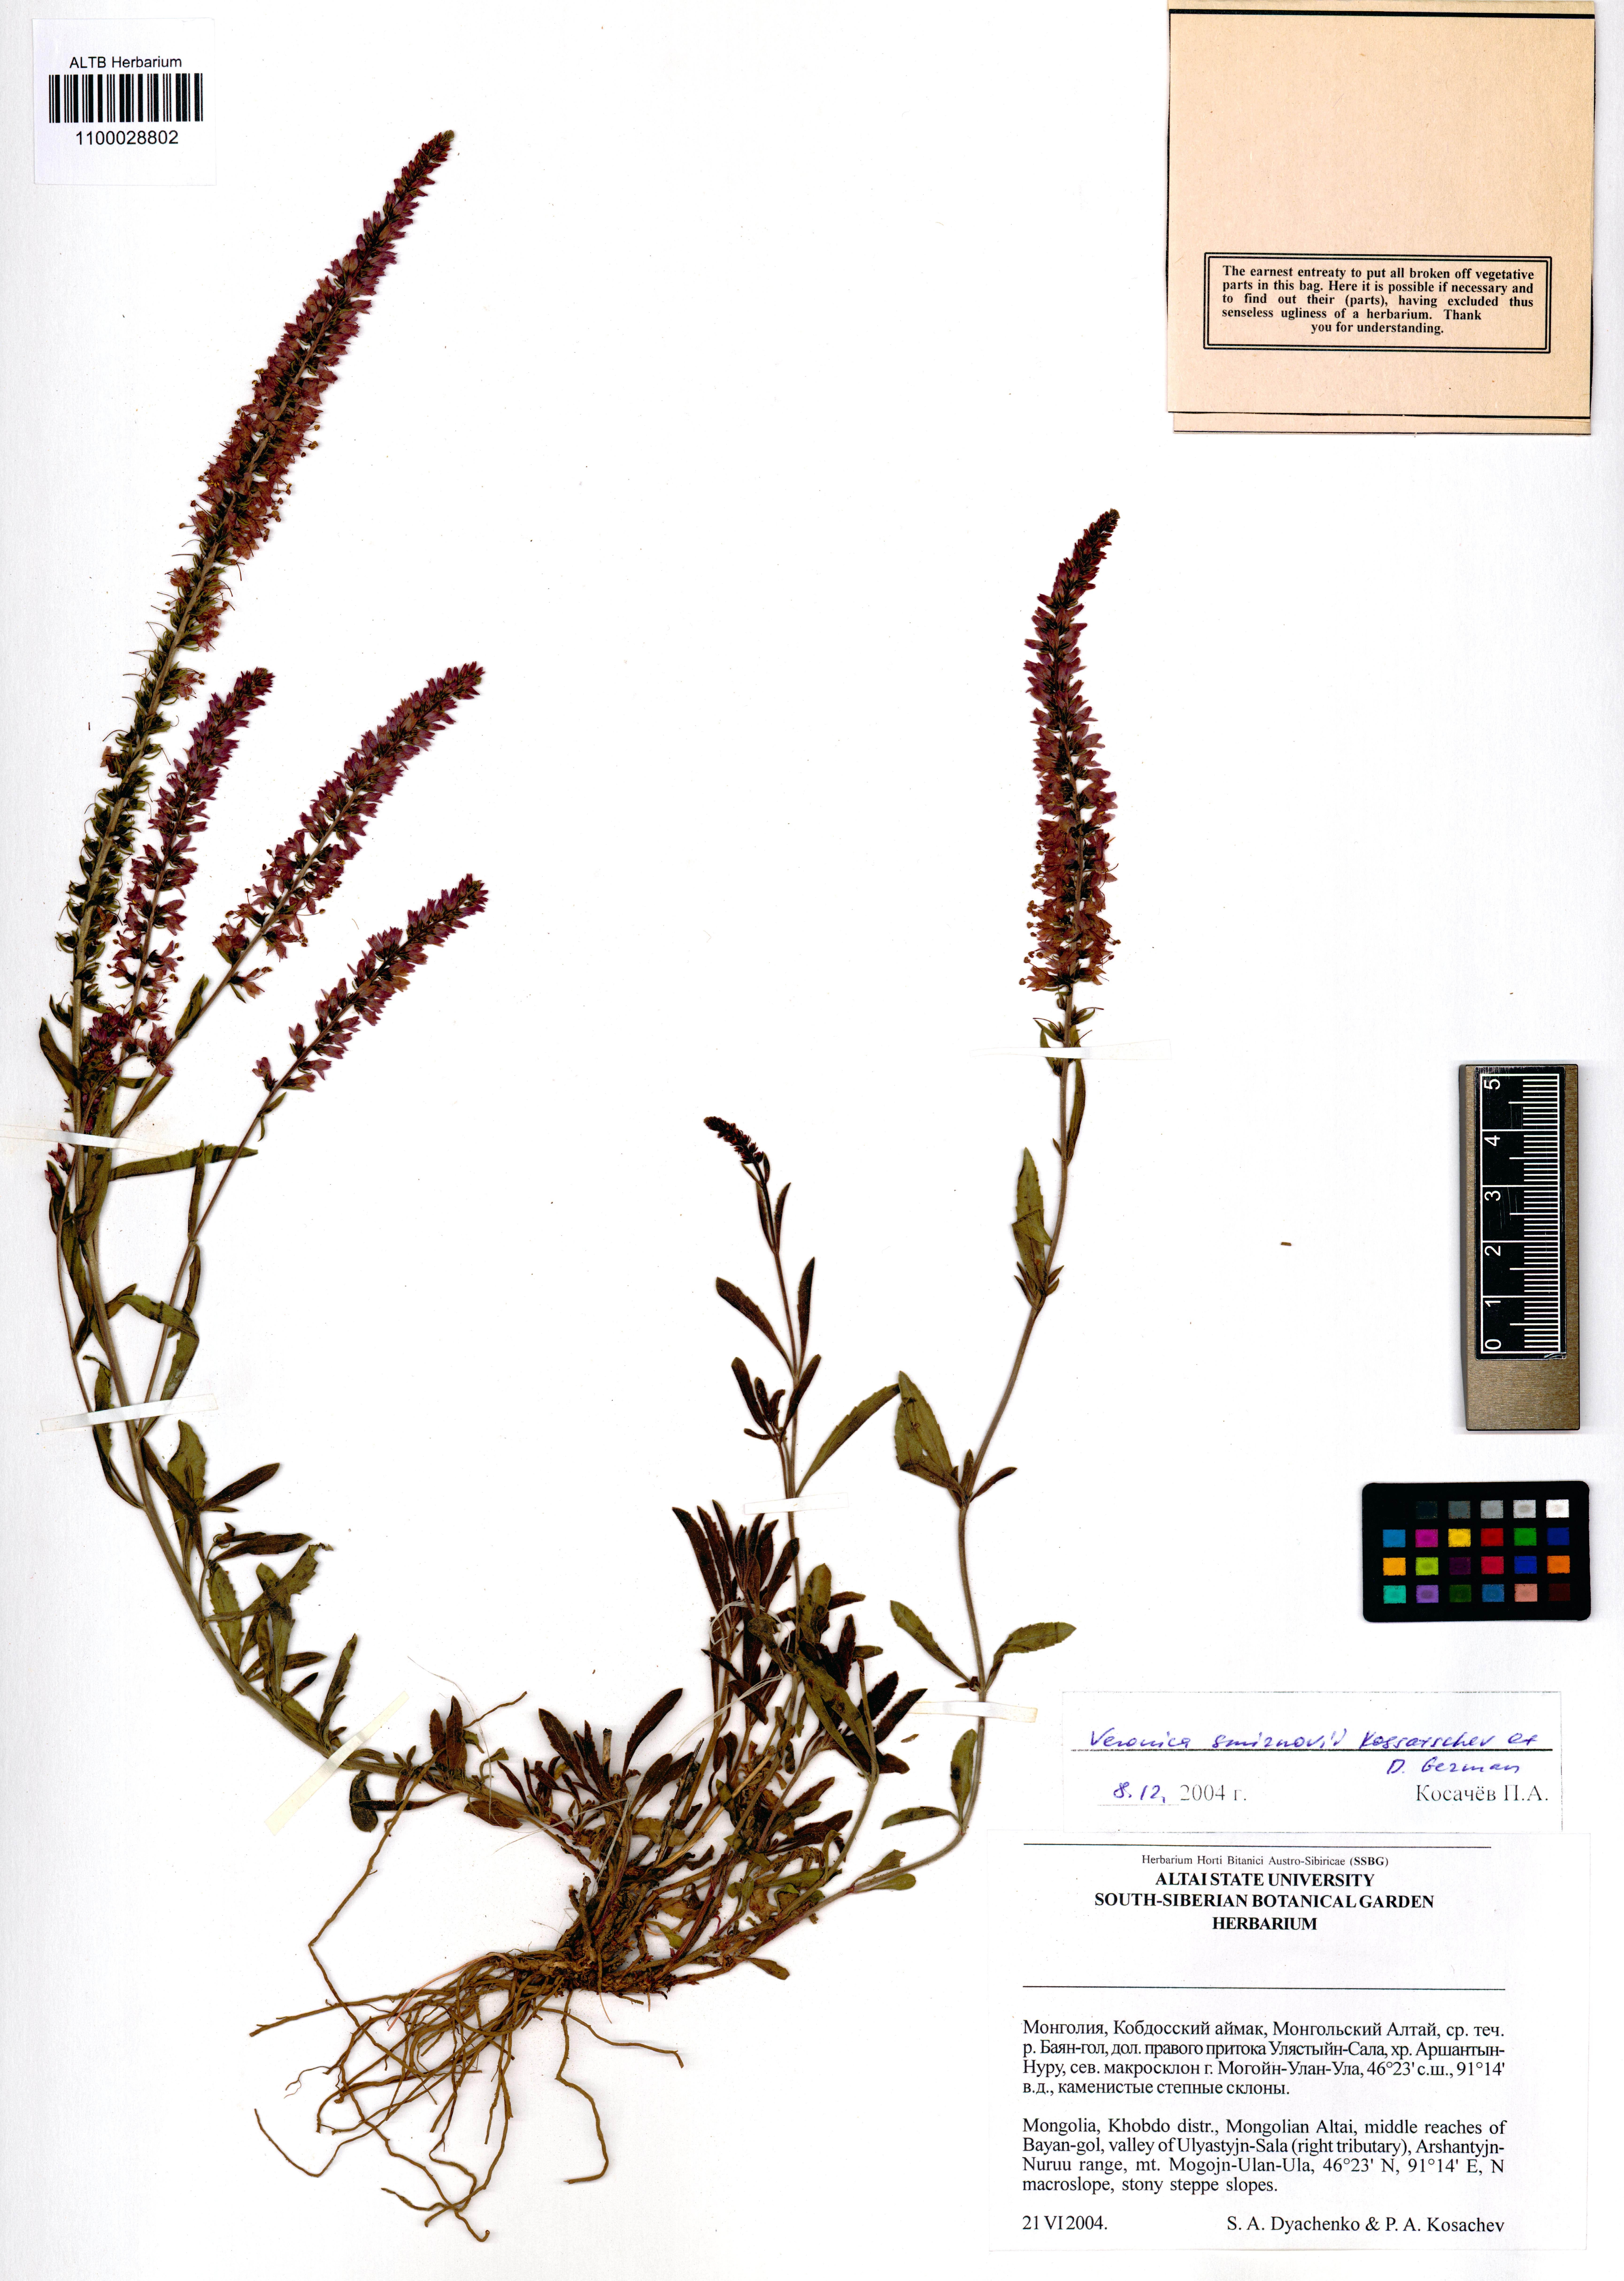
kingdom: Plantae
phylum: Tracheophyta
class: Magnoliopsida
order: Lamiales
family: Plantaginaceae
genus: Veronica
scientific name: Veronica smirnovii
